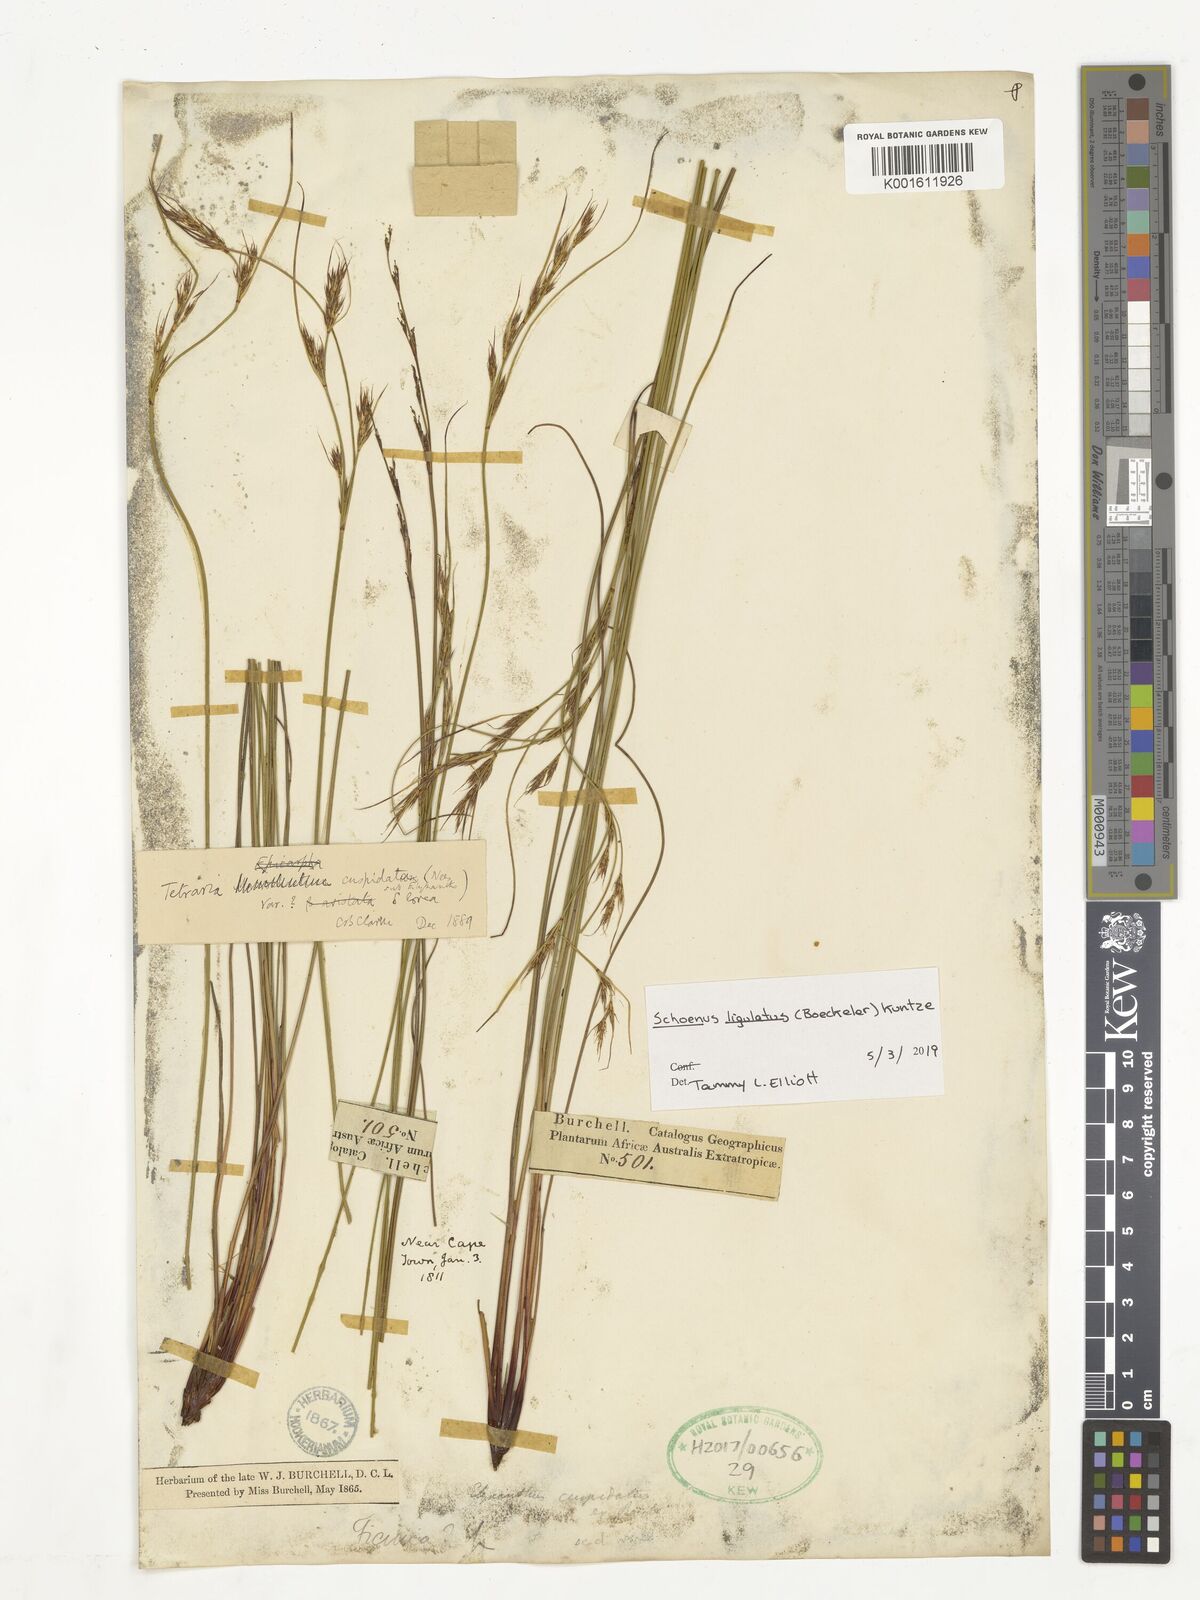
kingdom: Plantae
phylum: Tracheophyta
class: Liliopsida
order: Poales
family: Cyperaceae
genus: Schoenus
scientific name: Schoenus ligulatus
